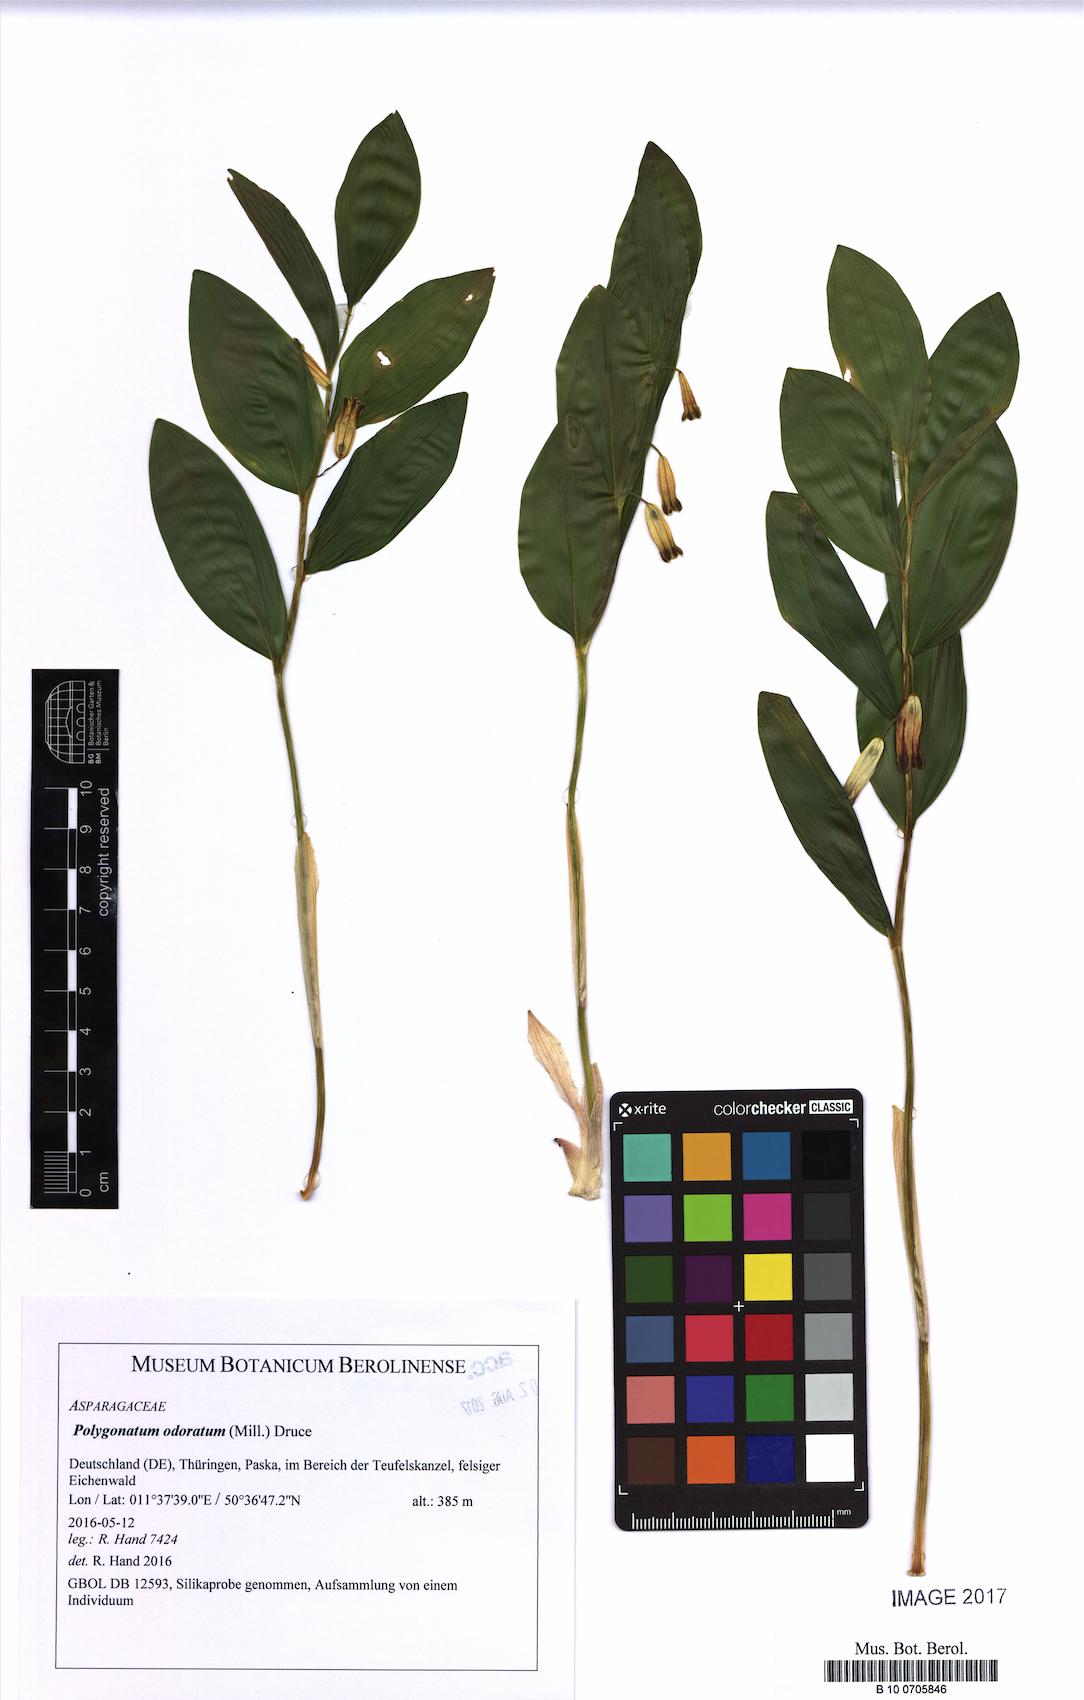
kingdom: Plantae
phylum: Tracheophyta
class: Liliopsida
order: Asparagales
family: Asparagaceae
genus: Polygonatum
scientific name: Polygonatum odoratum
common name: Angular solomon's-seal
